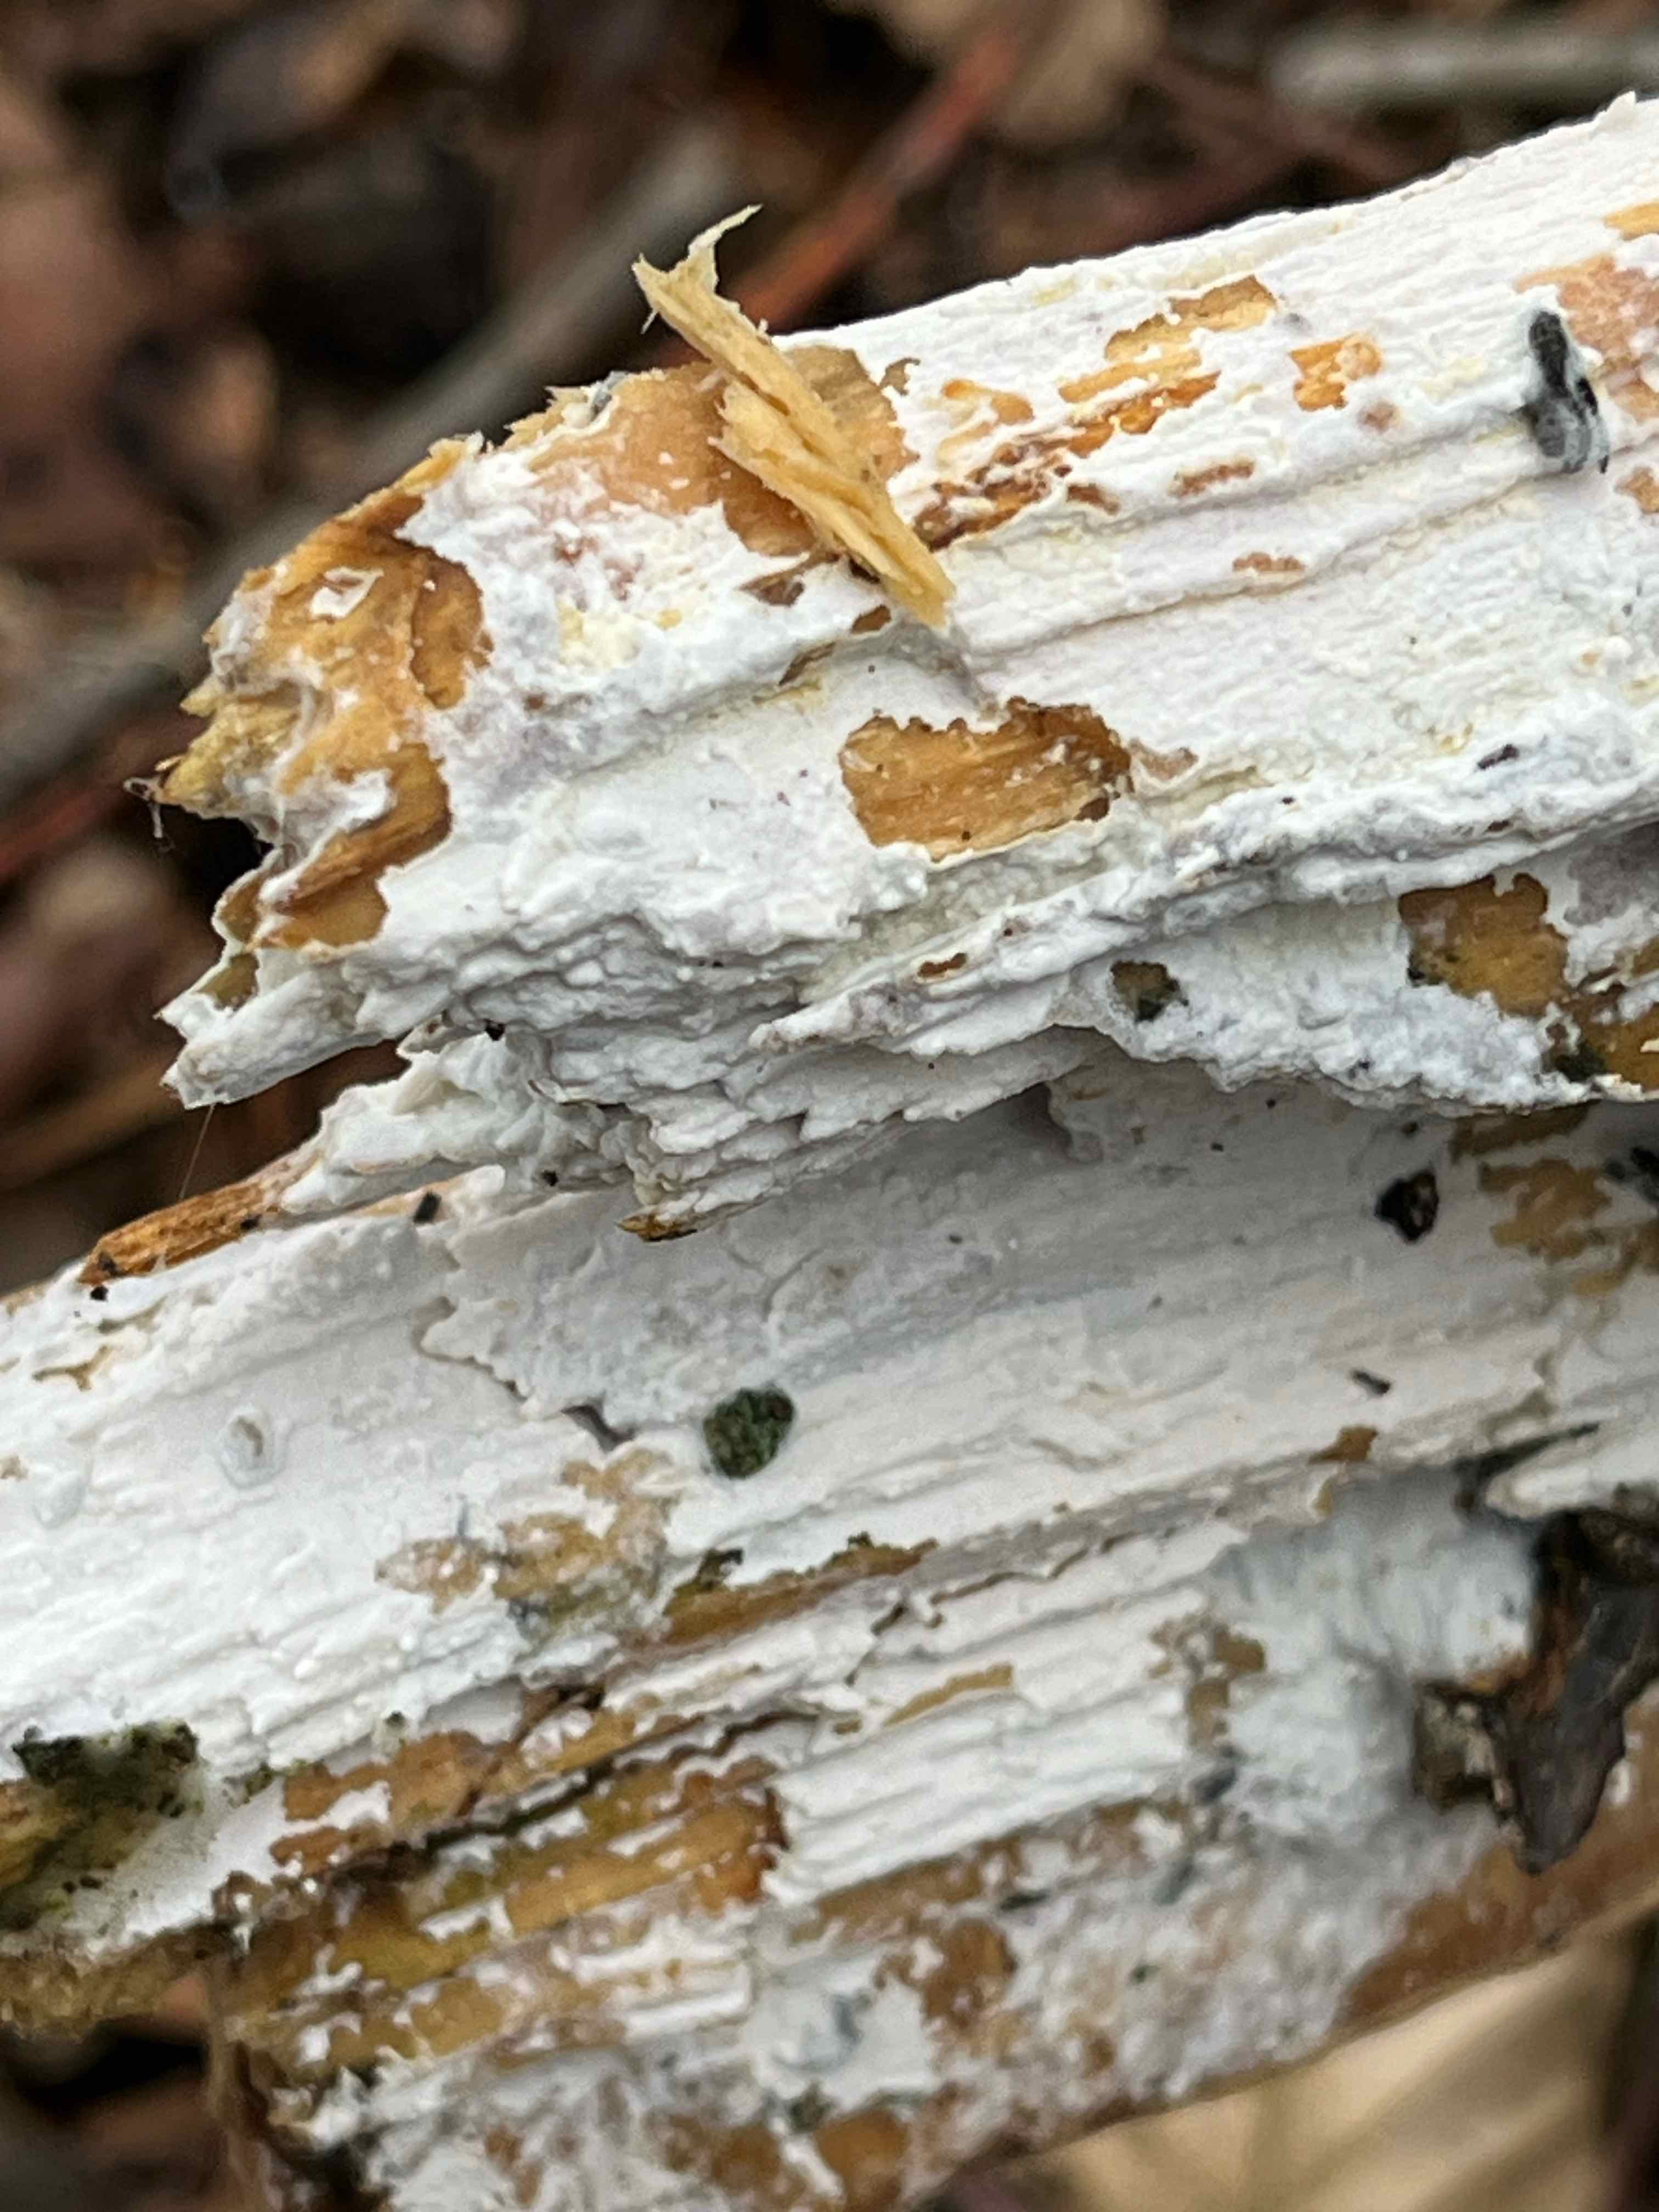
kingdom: Fungi
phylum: Basidiomycota
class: Agaricomycetes
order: Corticiales
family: Corticiaceae
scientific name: Corticiaceae
